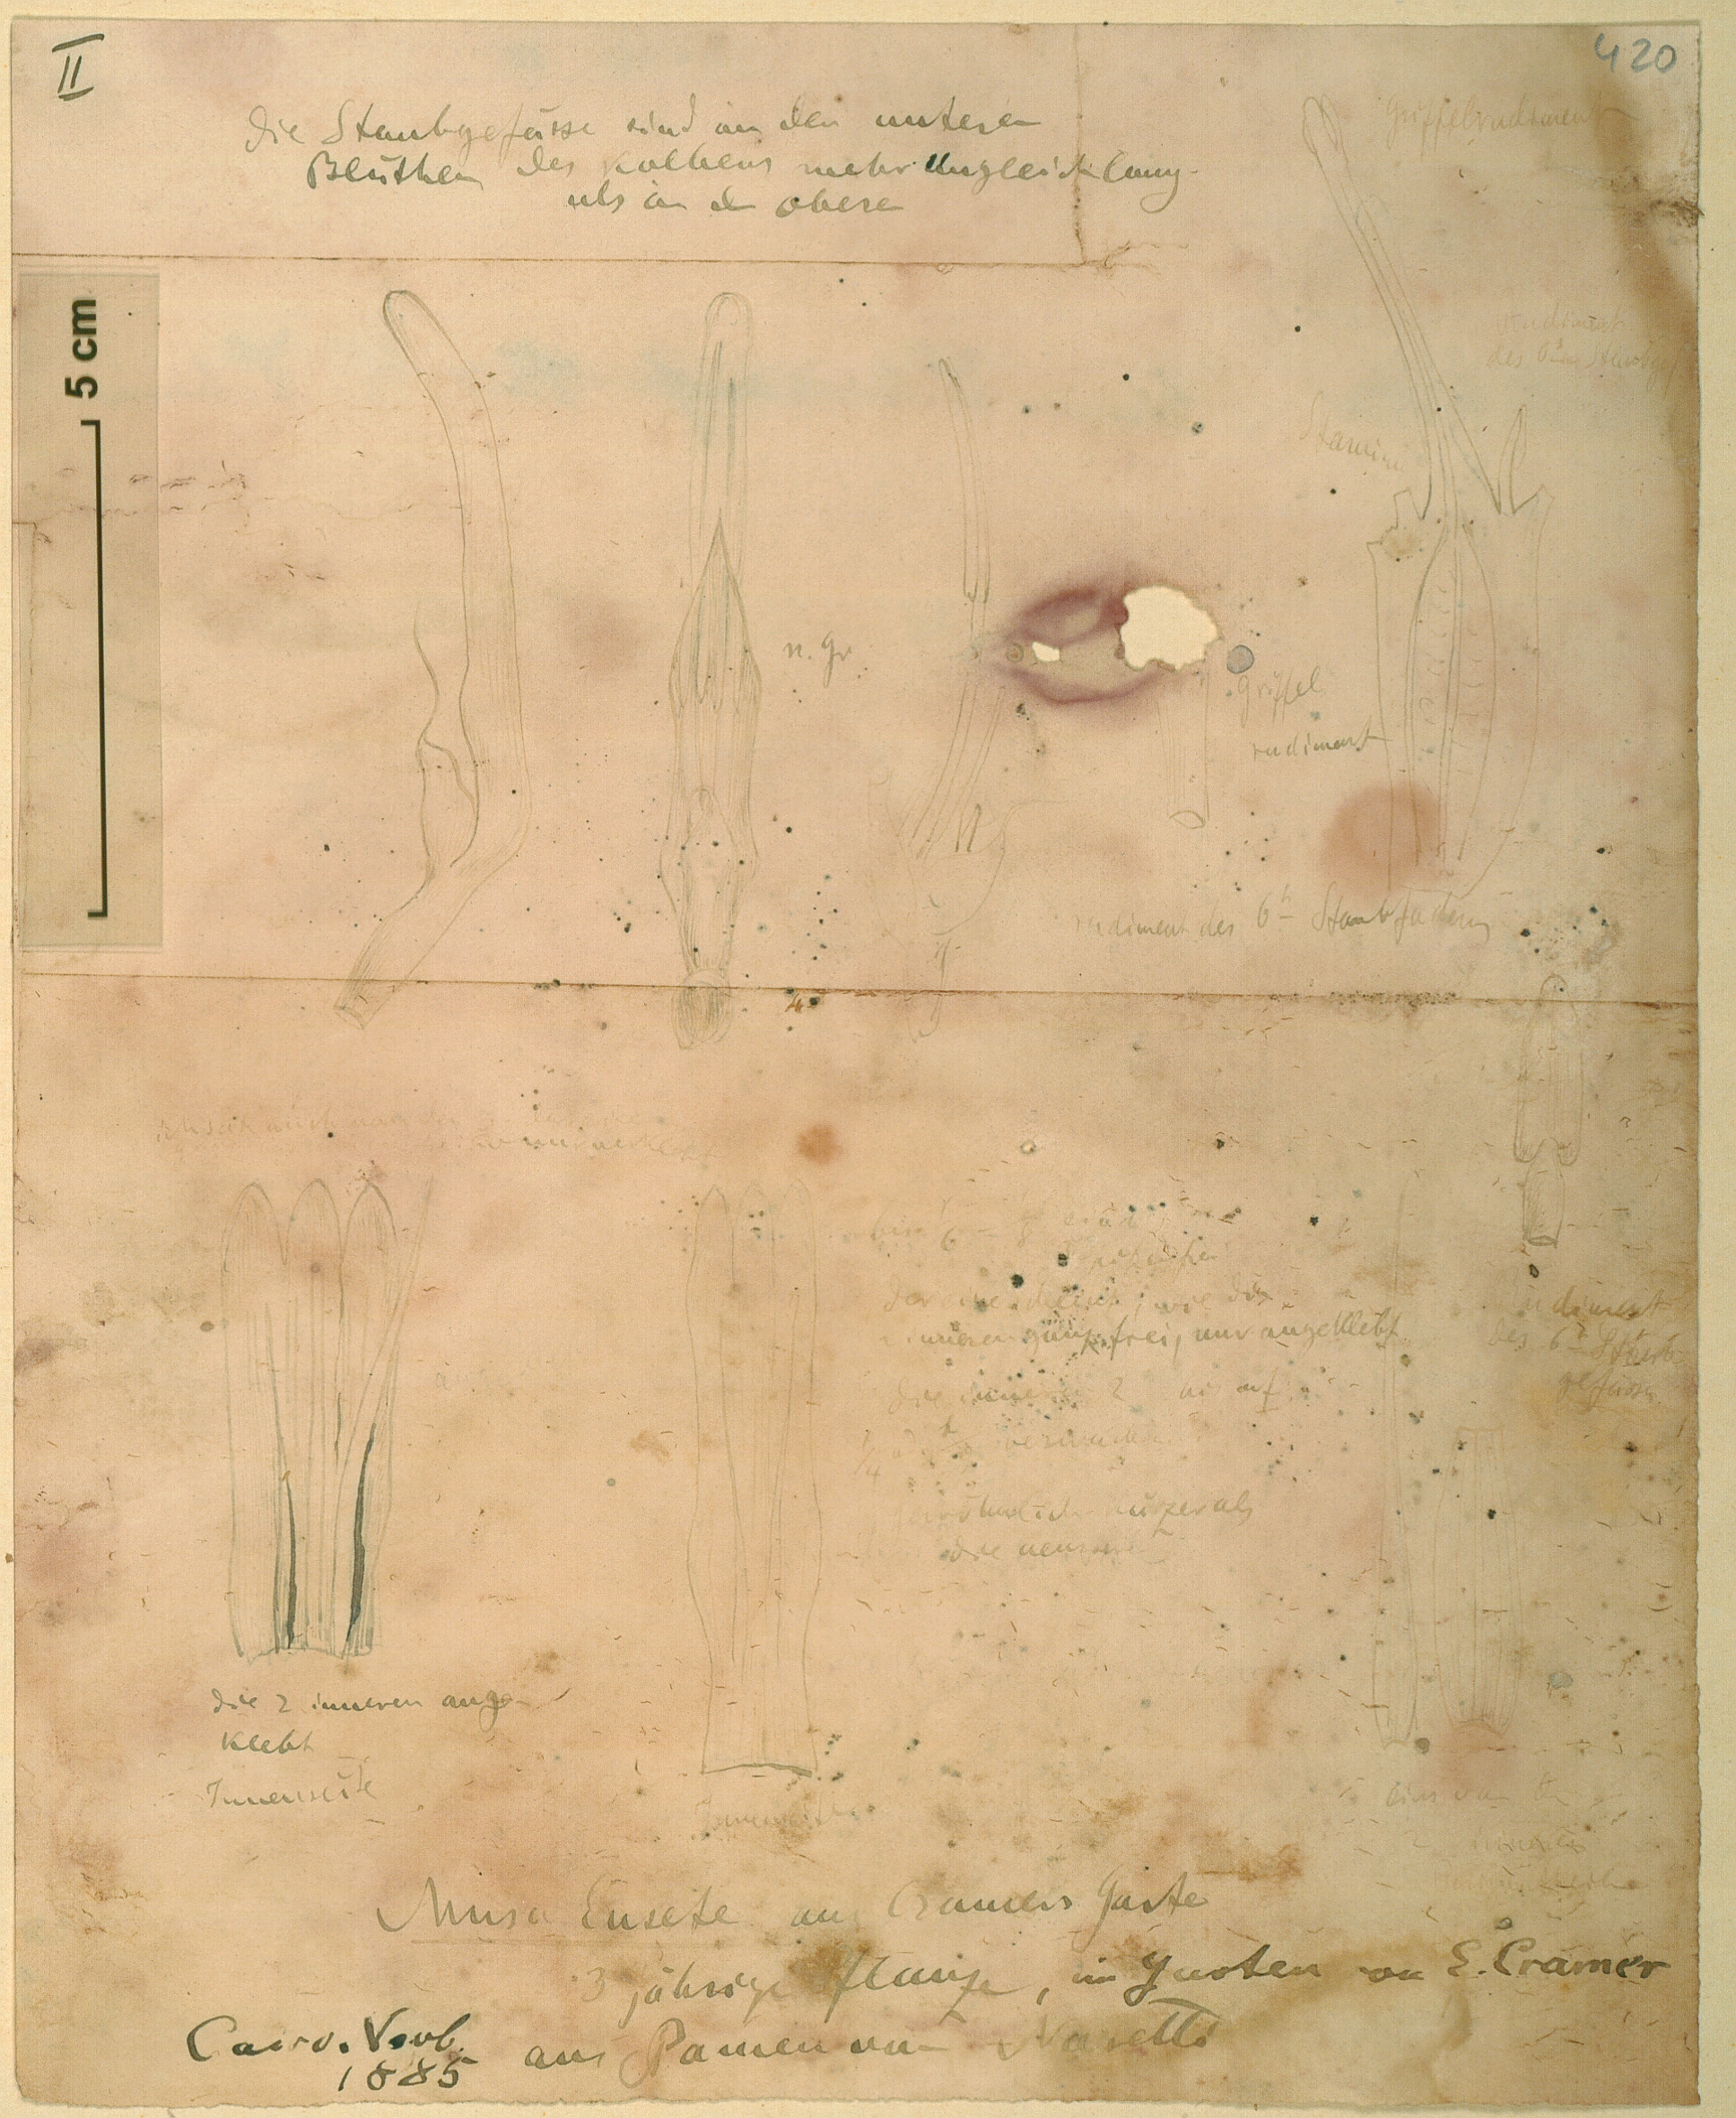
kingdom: Plantae
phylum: Tracheophyta
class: Liliopsida
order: Zingiberales
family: Musaceae
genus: Ensete
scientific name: Ensete ventricosum
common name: Abyssinian banana
